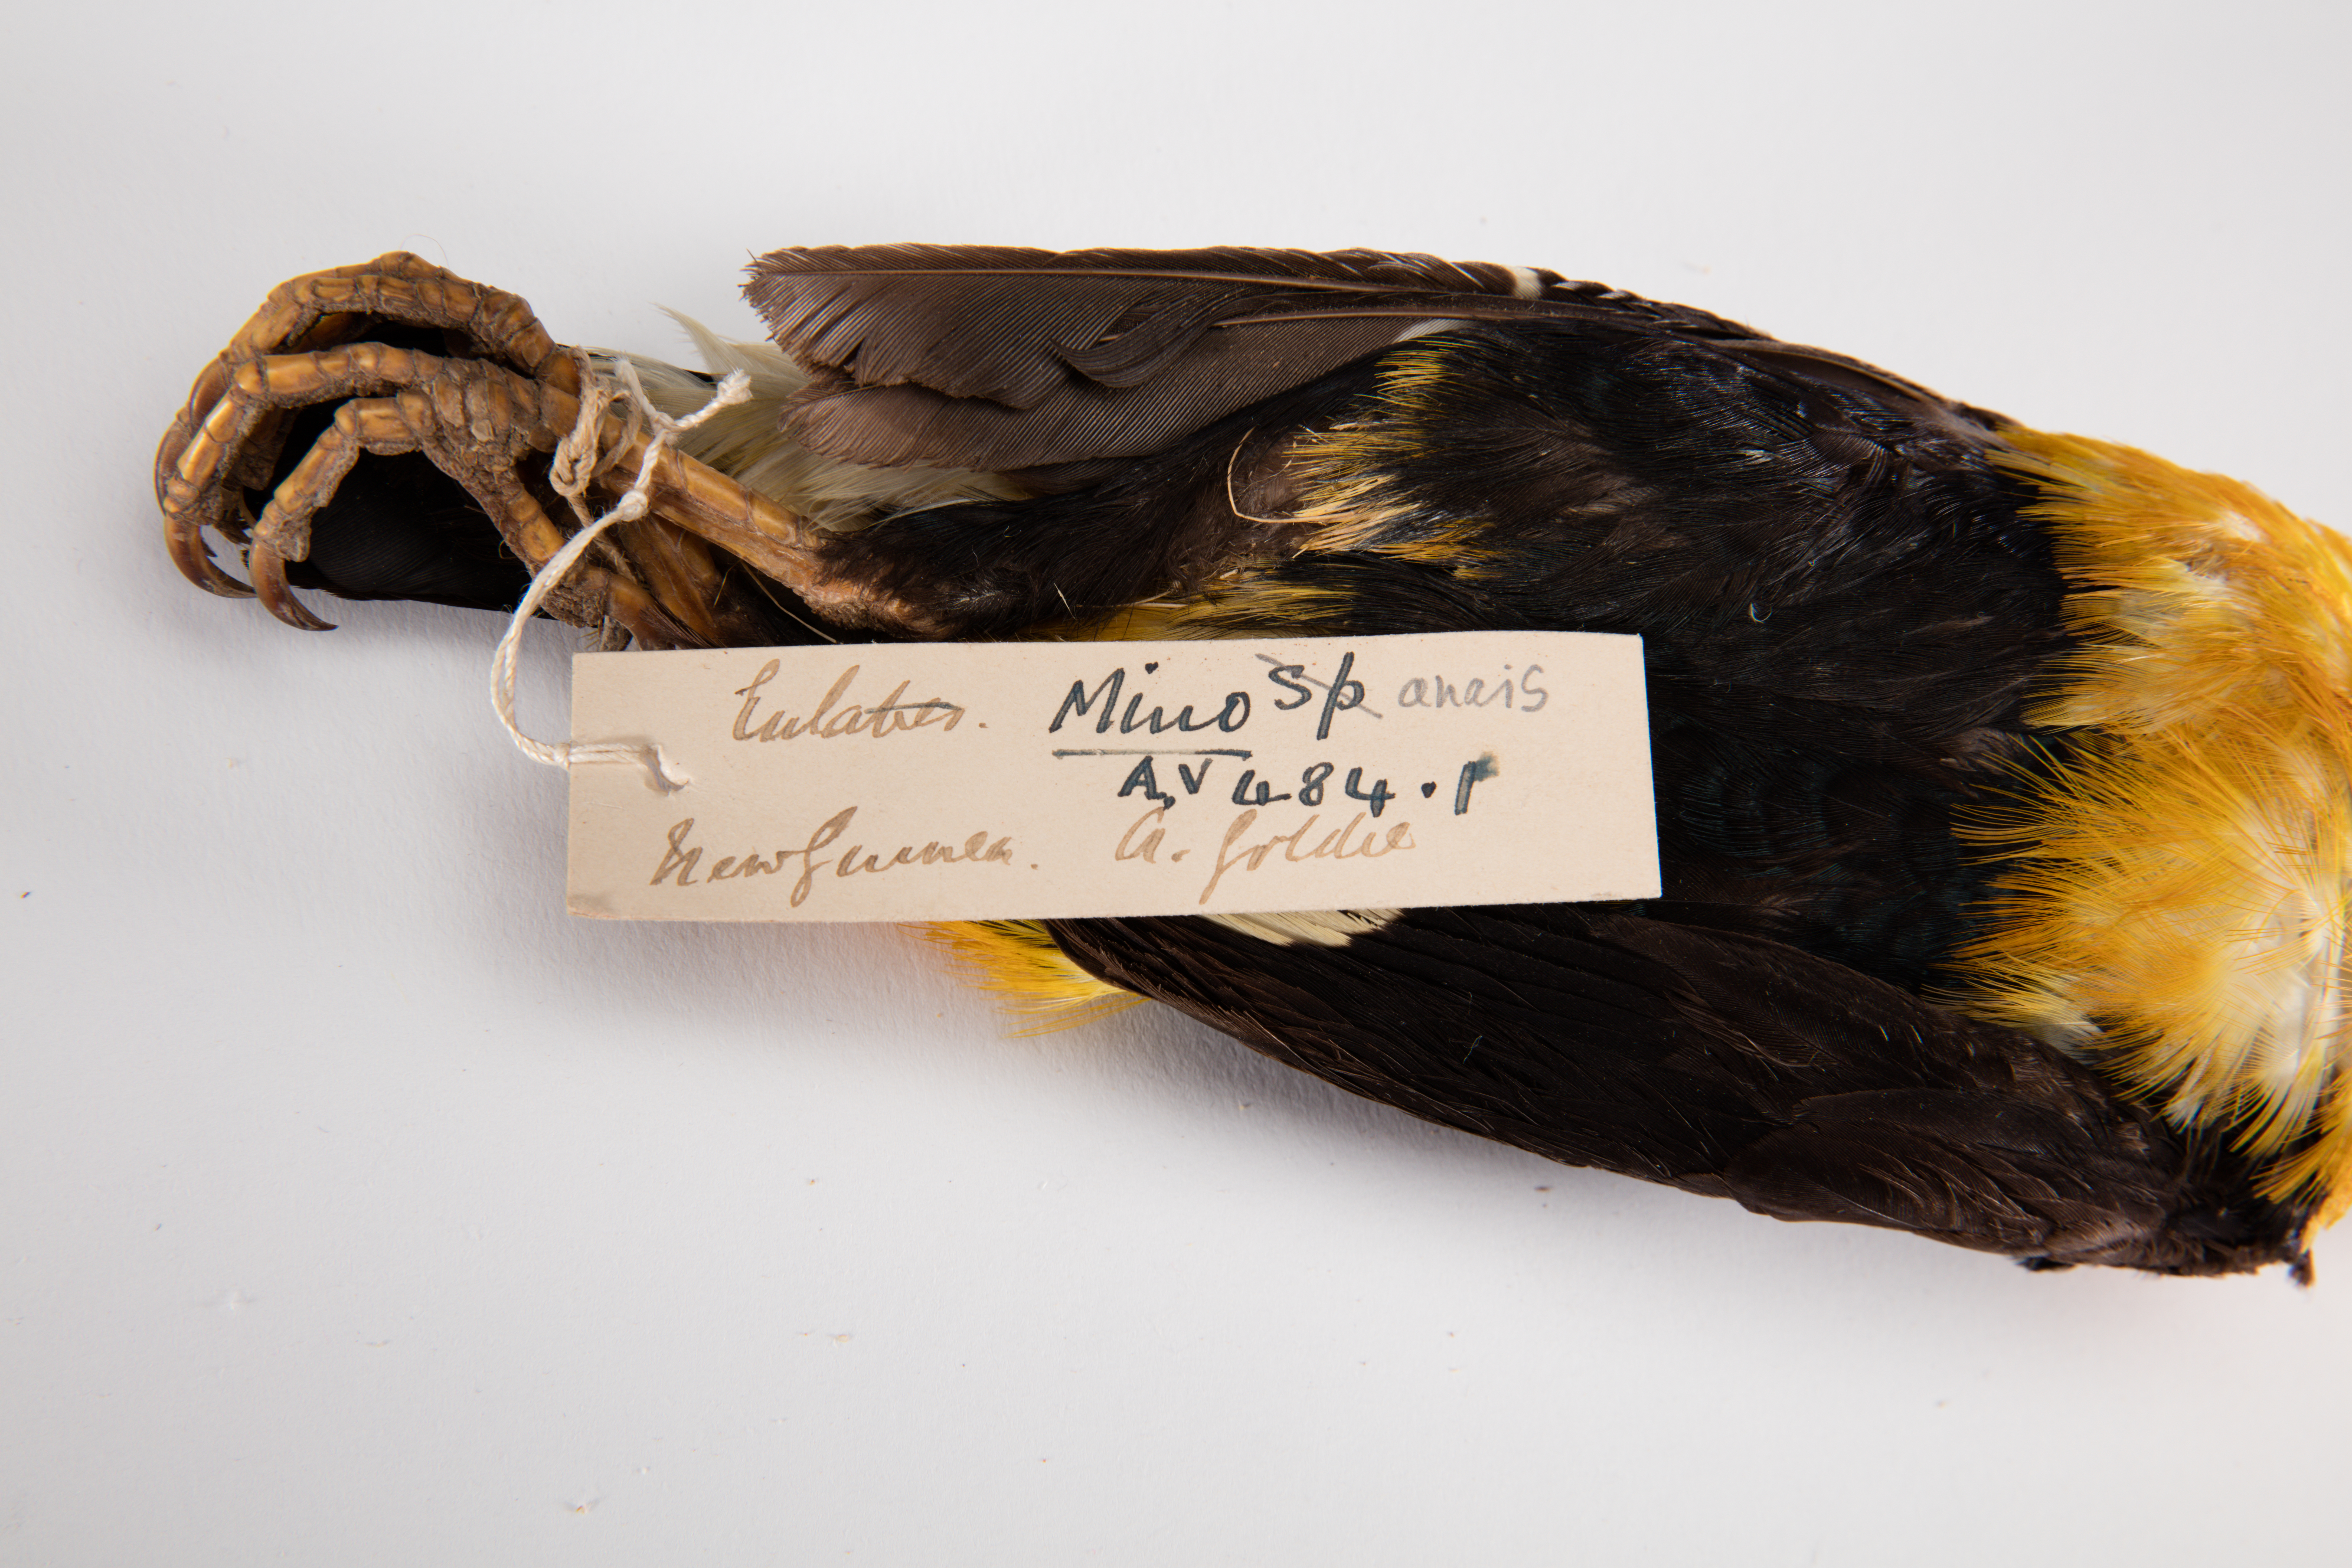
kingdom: Animalia
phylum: Chordata
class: Aves
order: Passeriformes
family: Sturnidae
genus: Mino
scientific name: Mino anais
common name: Golden myna
